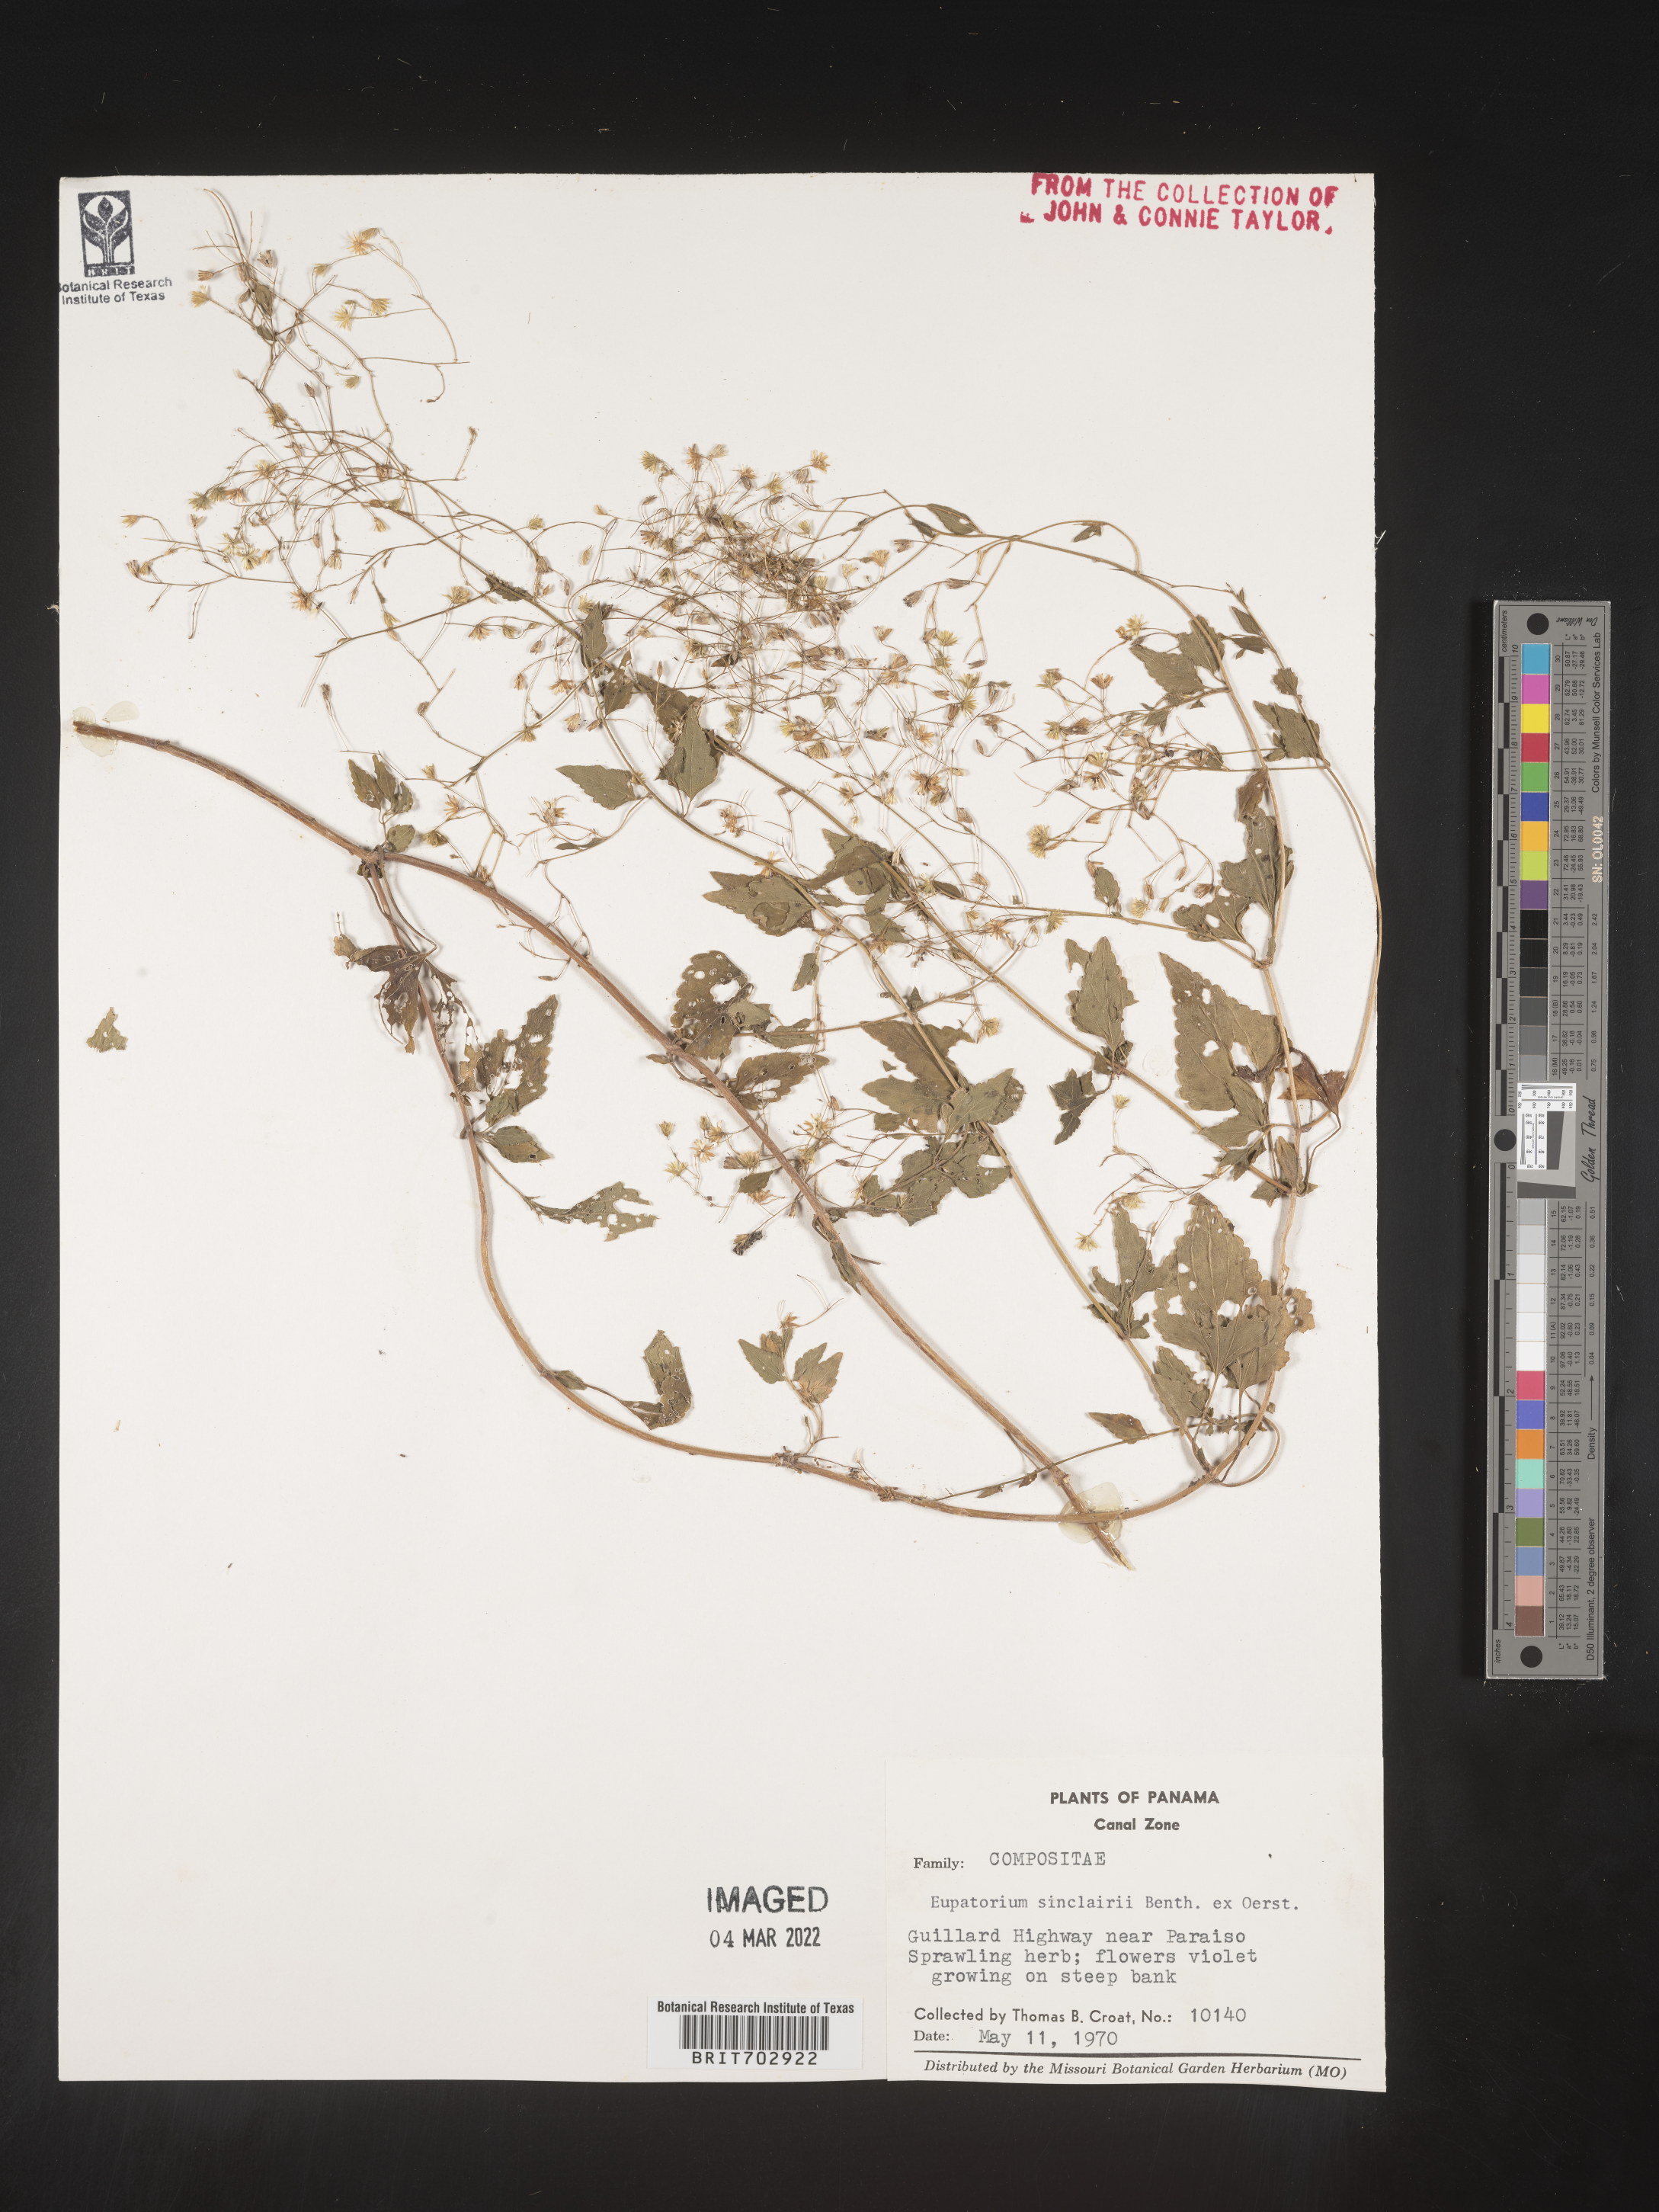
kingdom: Plantae
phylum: Tracheophyta
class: Magnoliopsida
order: Asterales
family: Asteraceae
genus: Eupatorium
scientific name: Eupatorium
